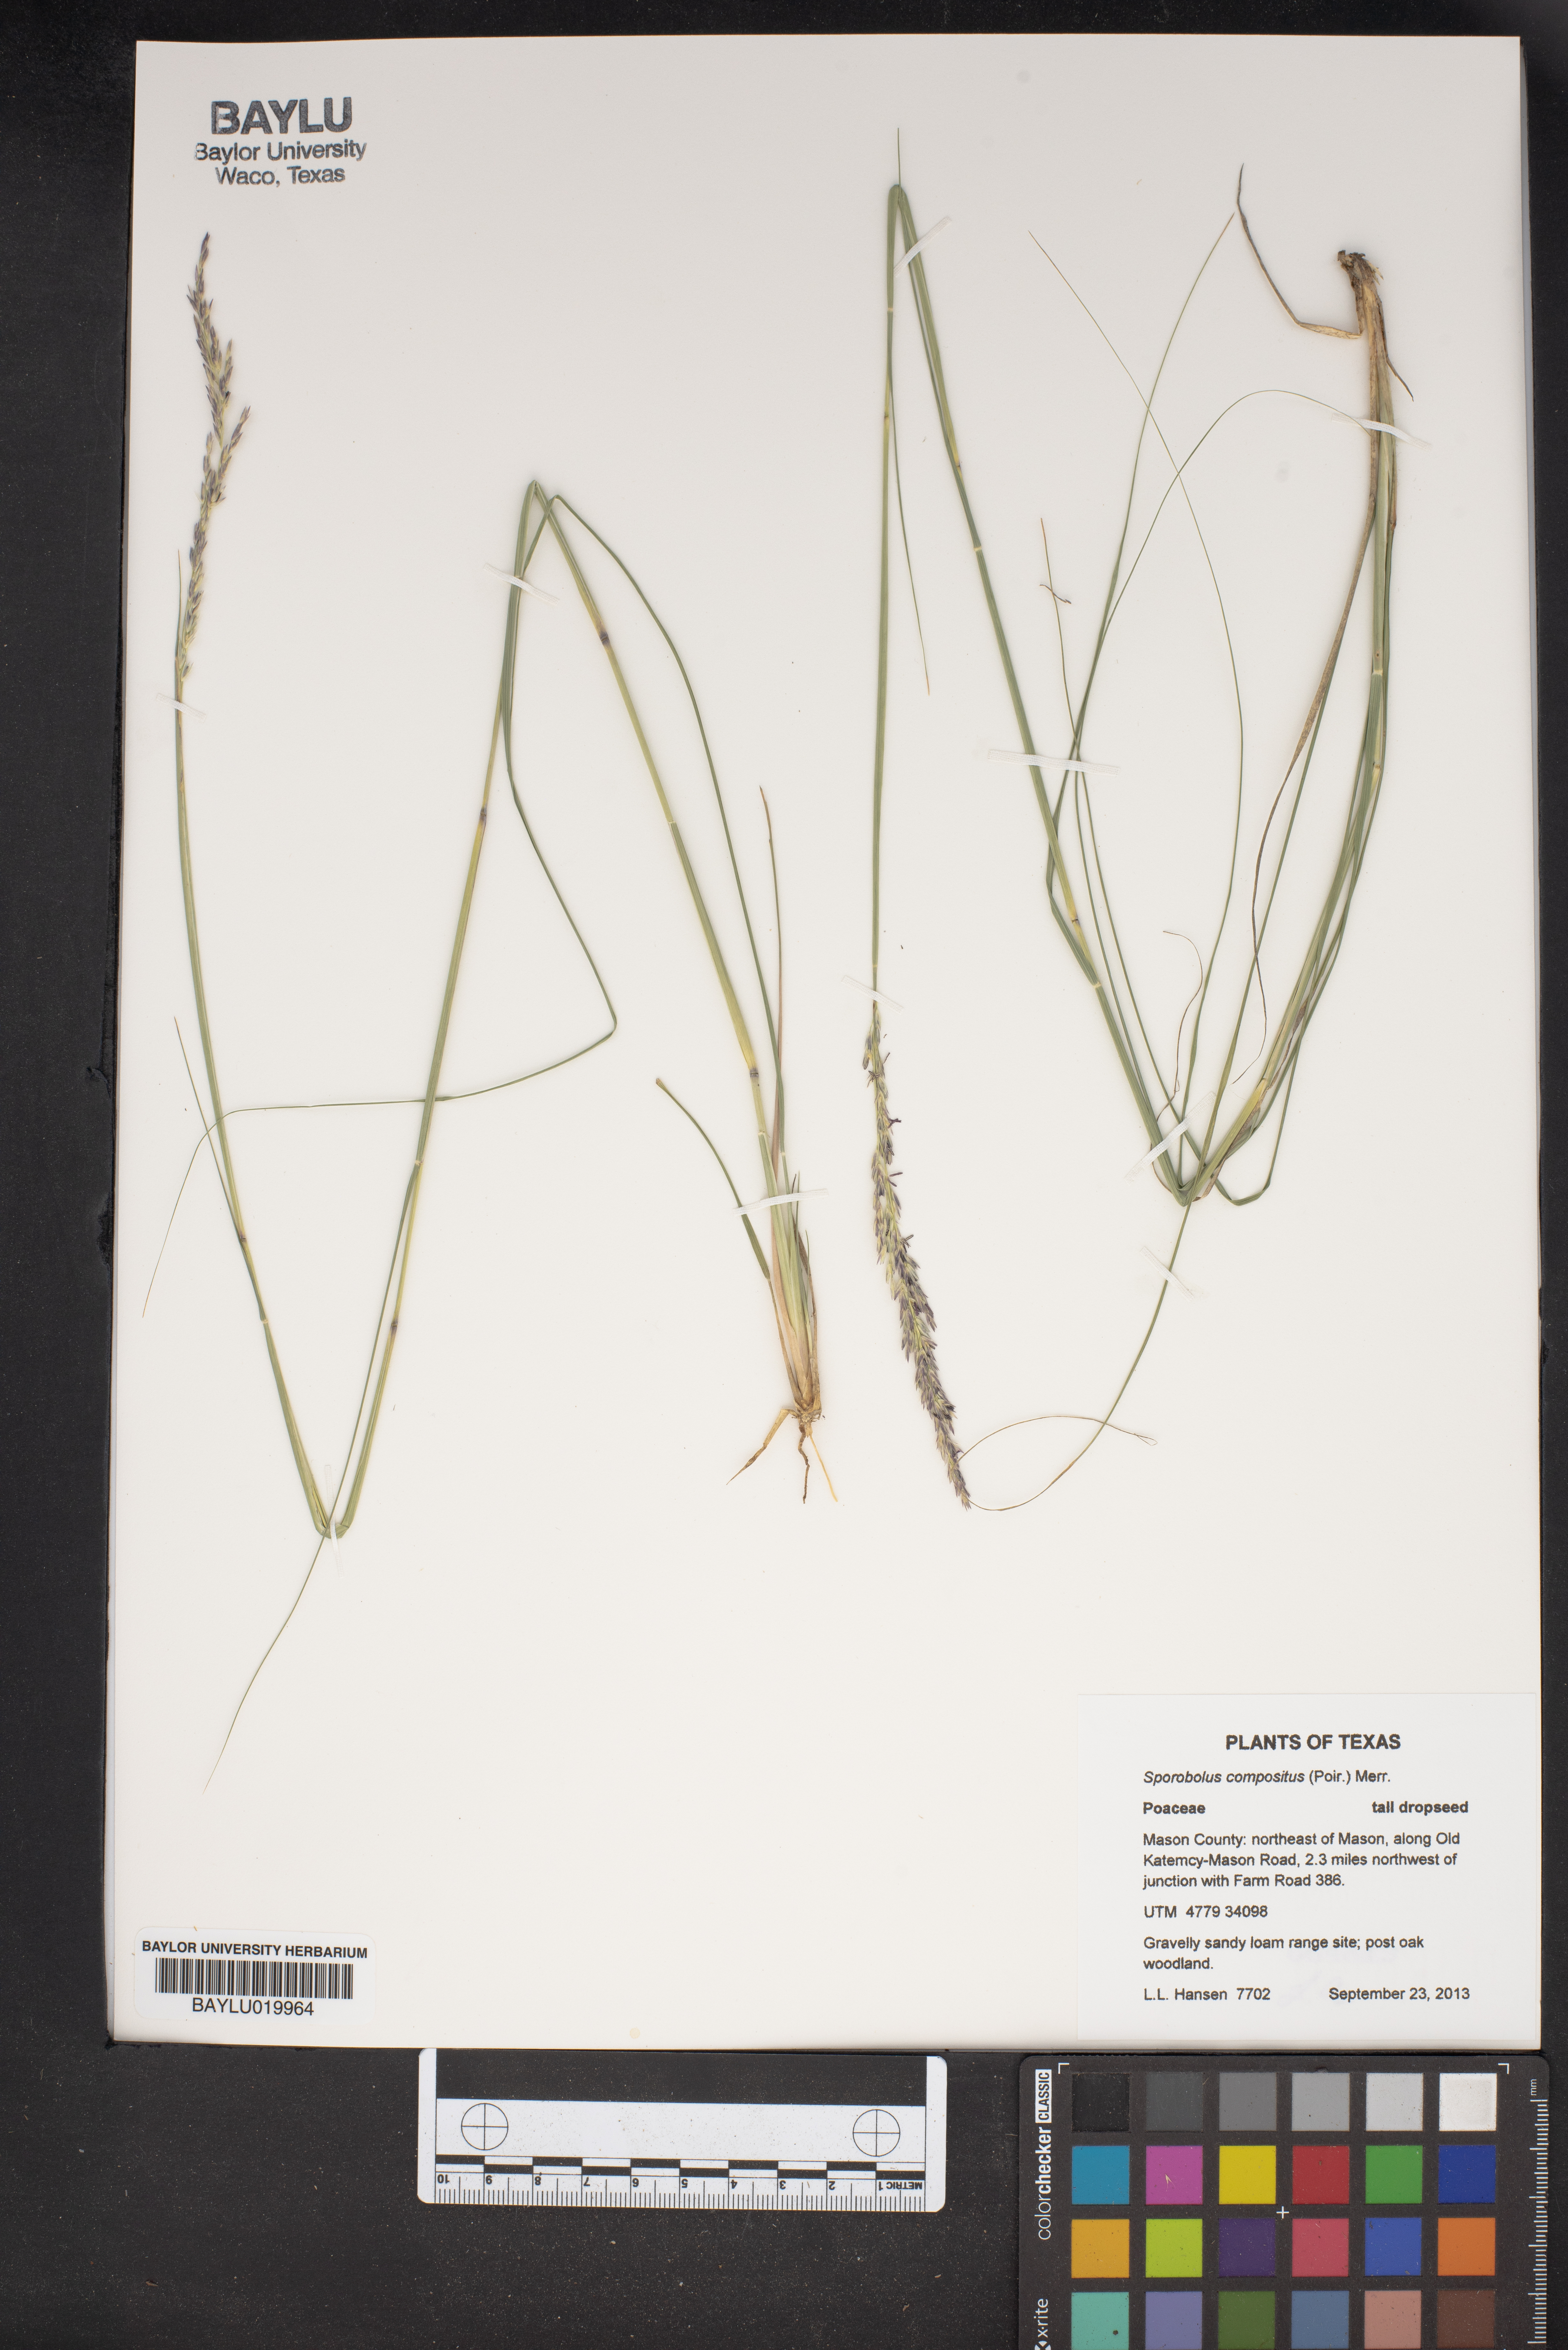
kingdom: Plantae
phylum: Tracheophyta
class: Liliopsida
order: Poales
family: Poaceae
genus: Sporobolus
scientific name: Sporobolus compositus
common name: Rough dropseed
